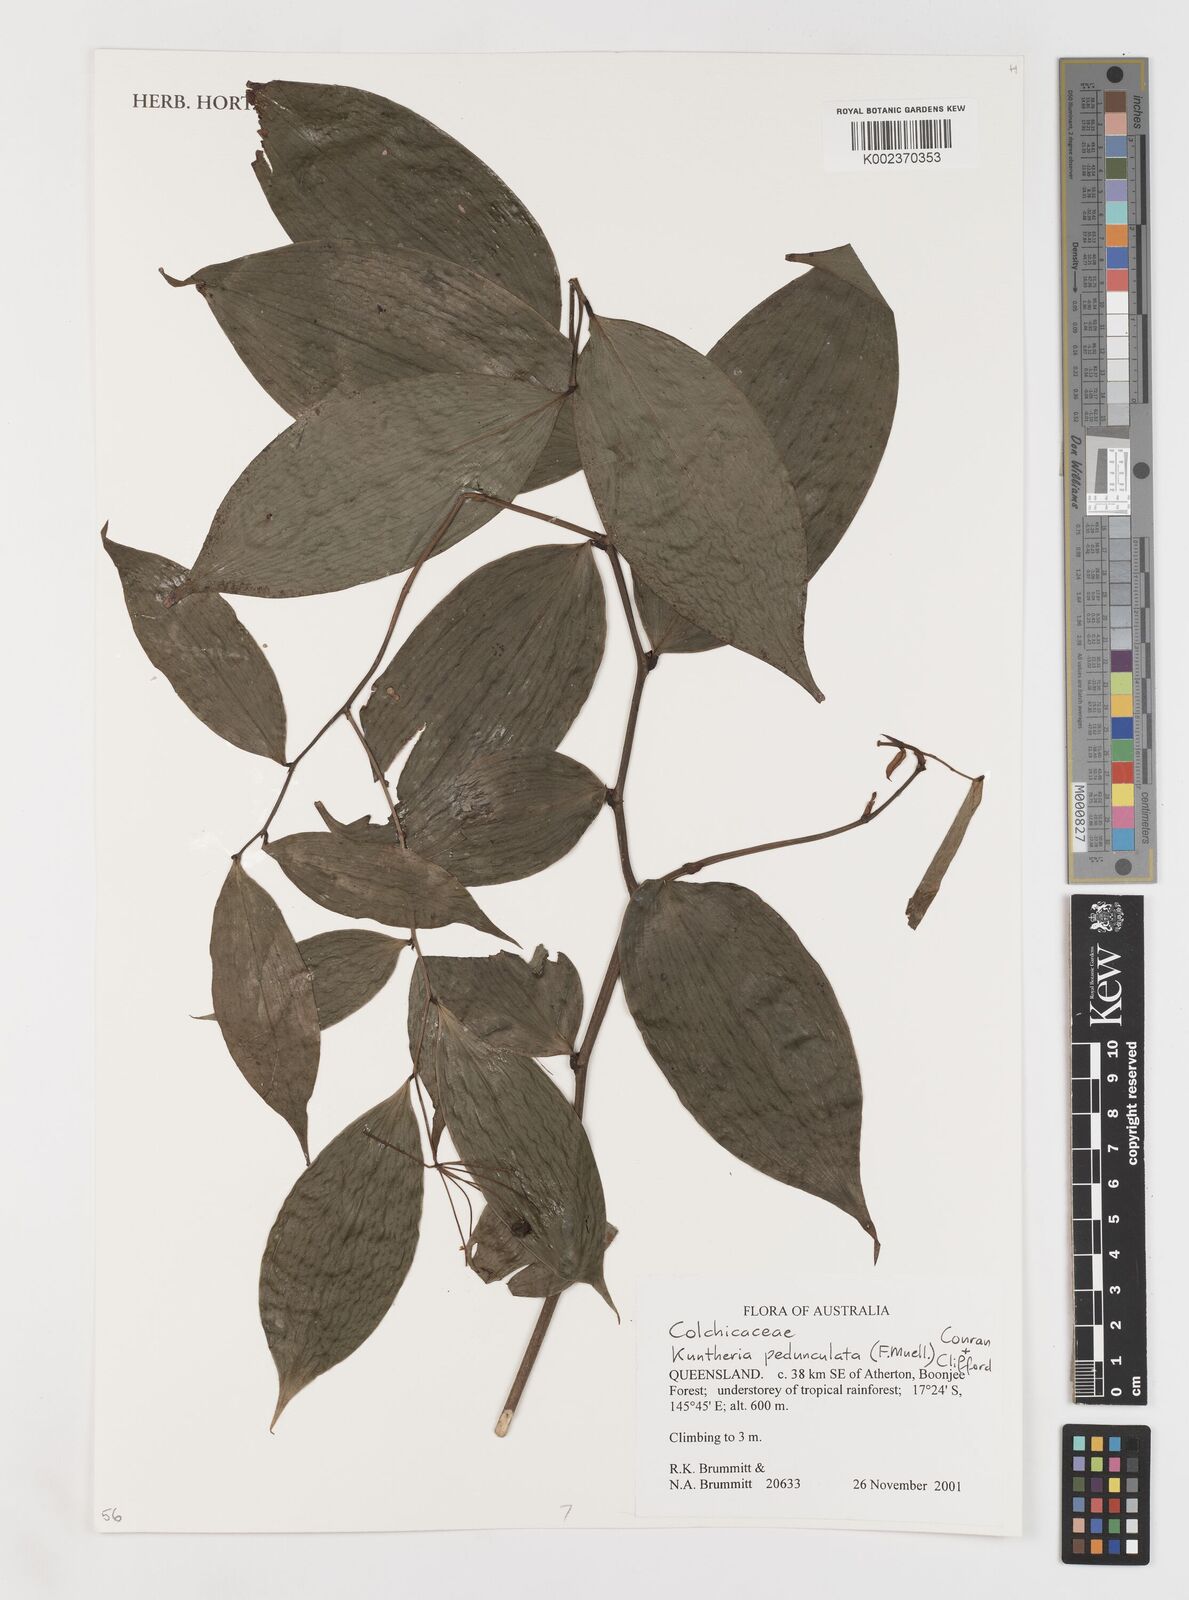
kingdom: Plantae
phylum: Tracheophyta
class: Liliopsida
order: Liliales
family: Colchicaceae
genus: Kuntheria
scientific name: Kuntheria pedunculata
